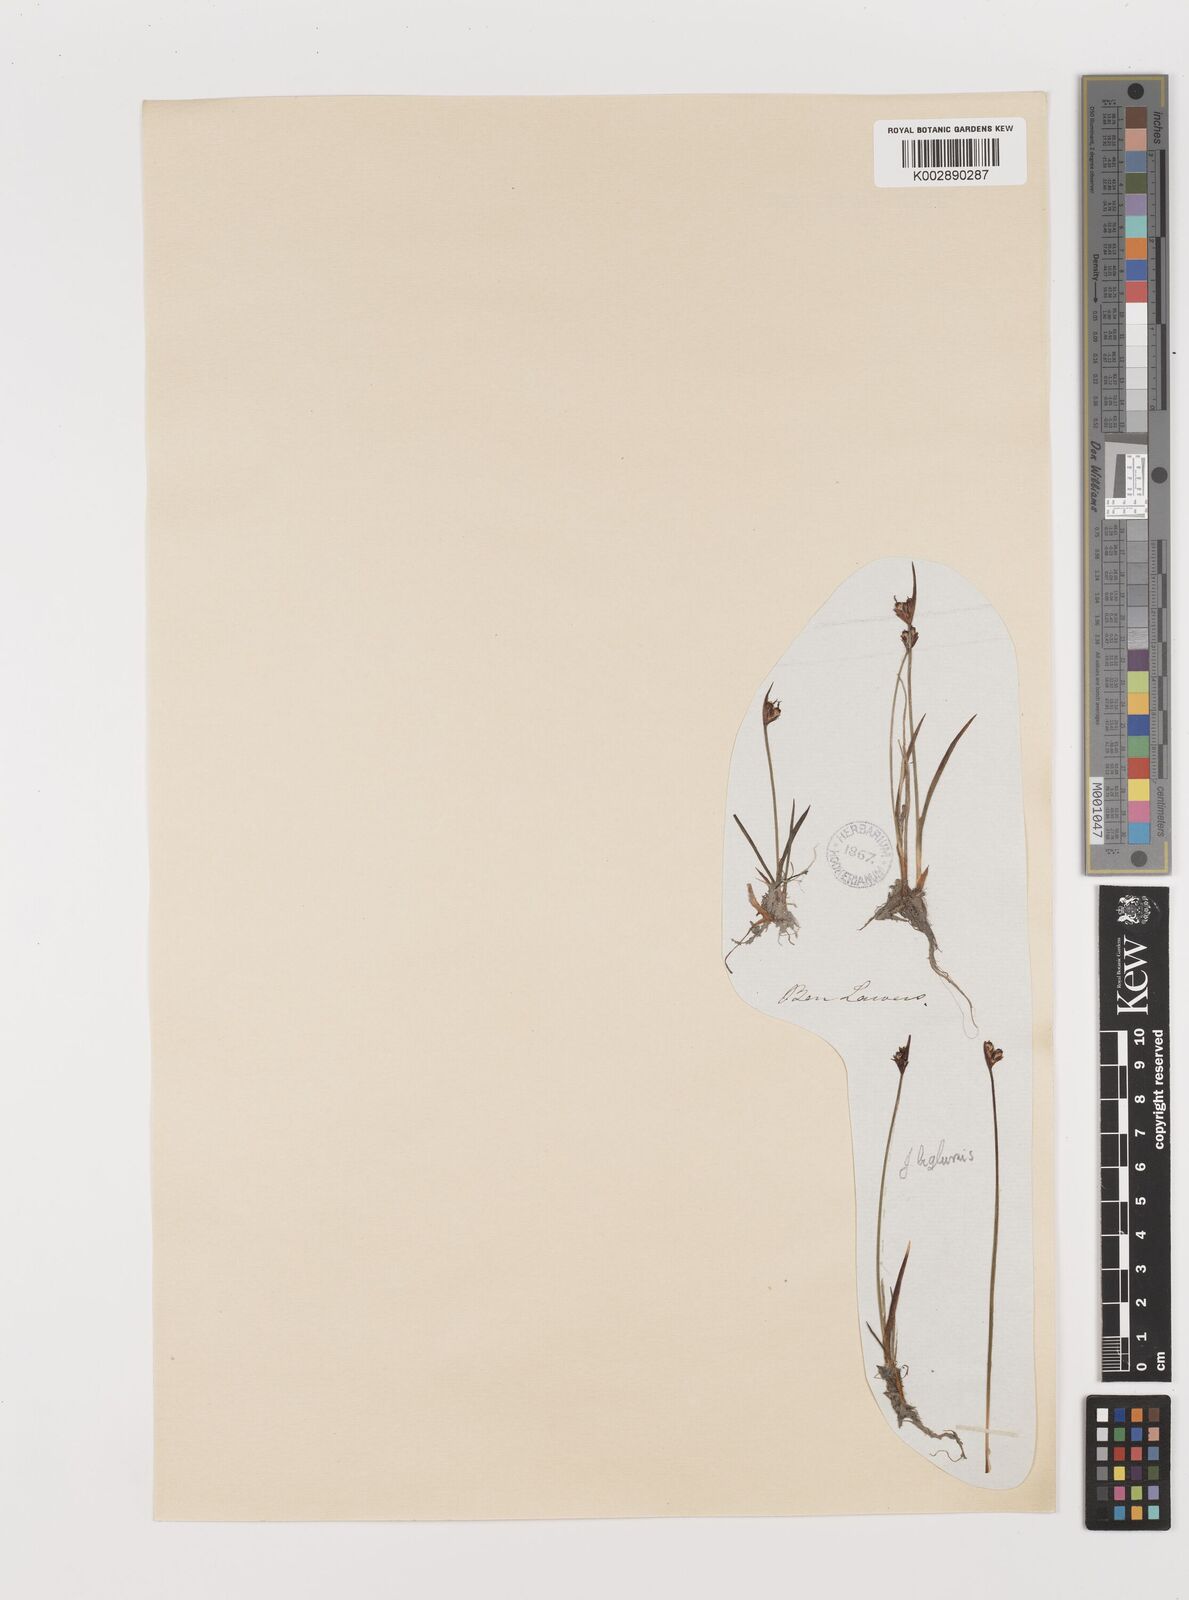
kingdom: Plantae
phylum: Tracheophyta
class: Liliopsida
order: Poales
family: Juncaceae
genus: Juncus
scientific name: Juncus biglumis
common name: Two-flowered rush
